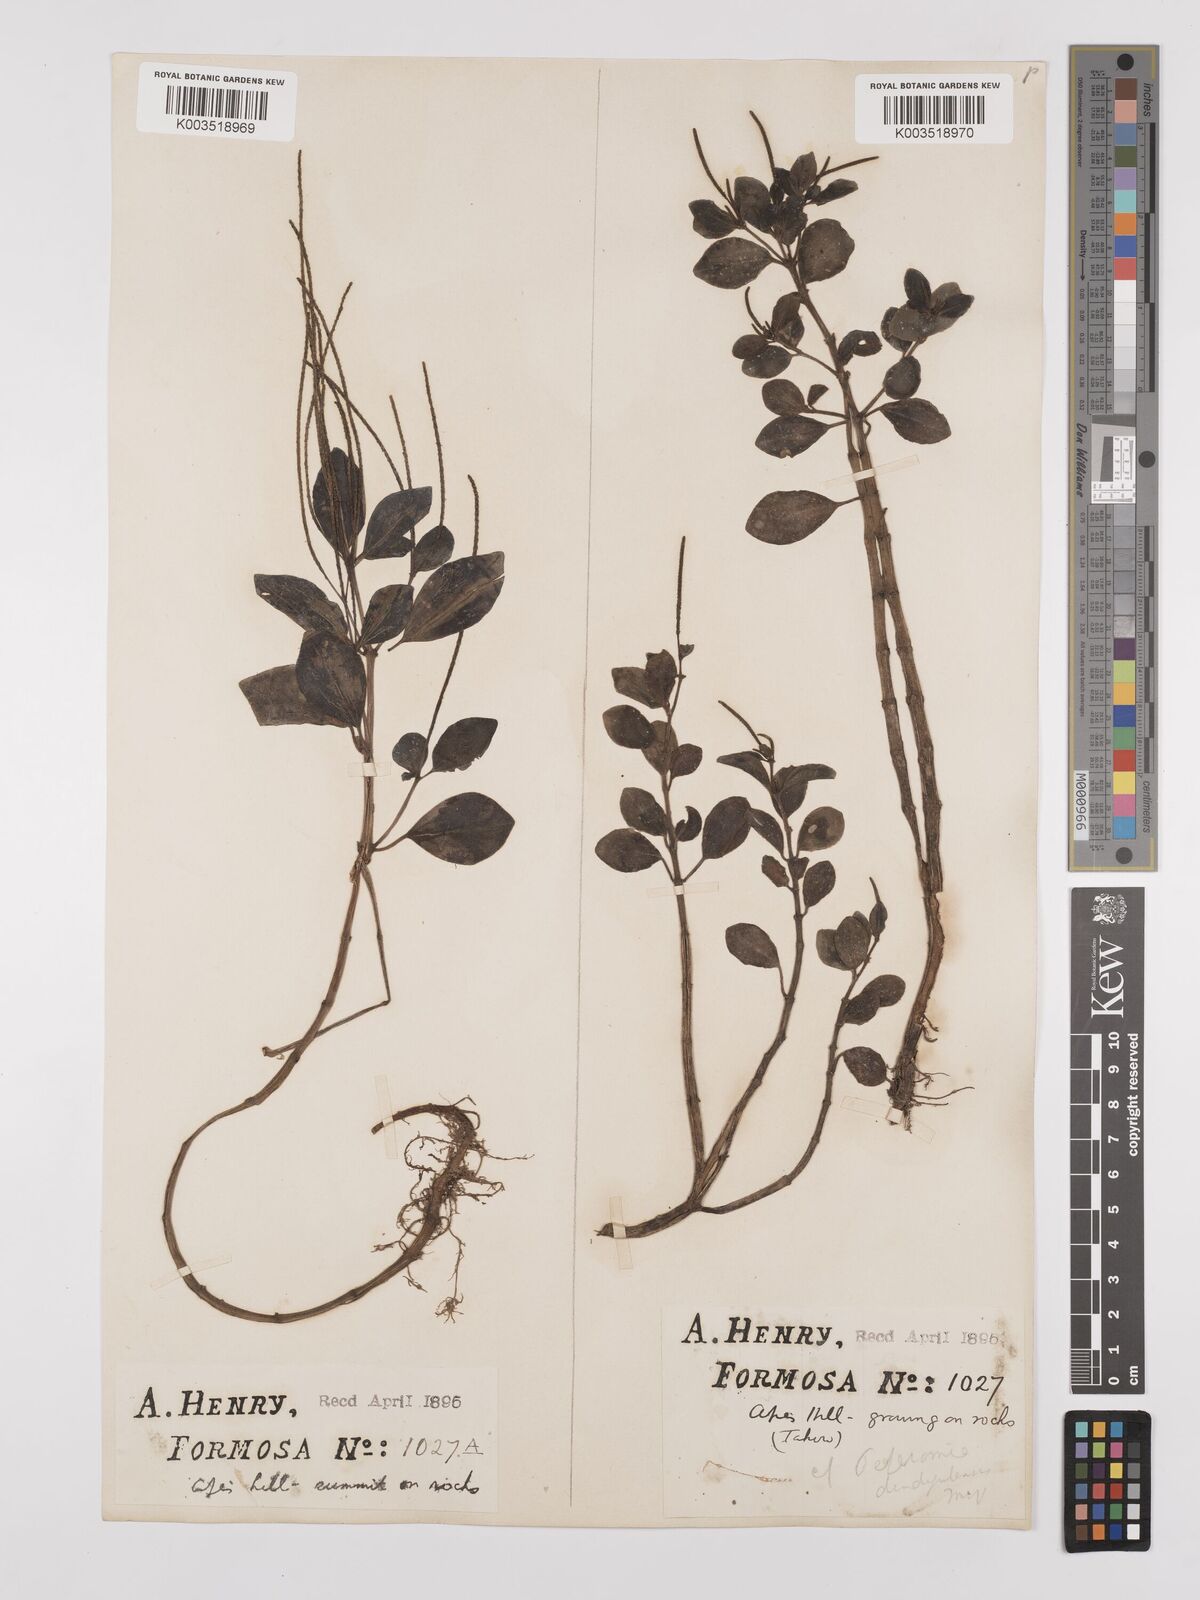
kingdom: Plantae
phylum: Tracheophyta
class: Magnoliopsida
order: Piperales
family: Piperaceae
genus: Peperomia
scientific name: Peperomia leptostachya
